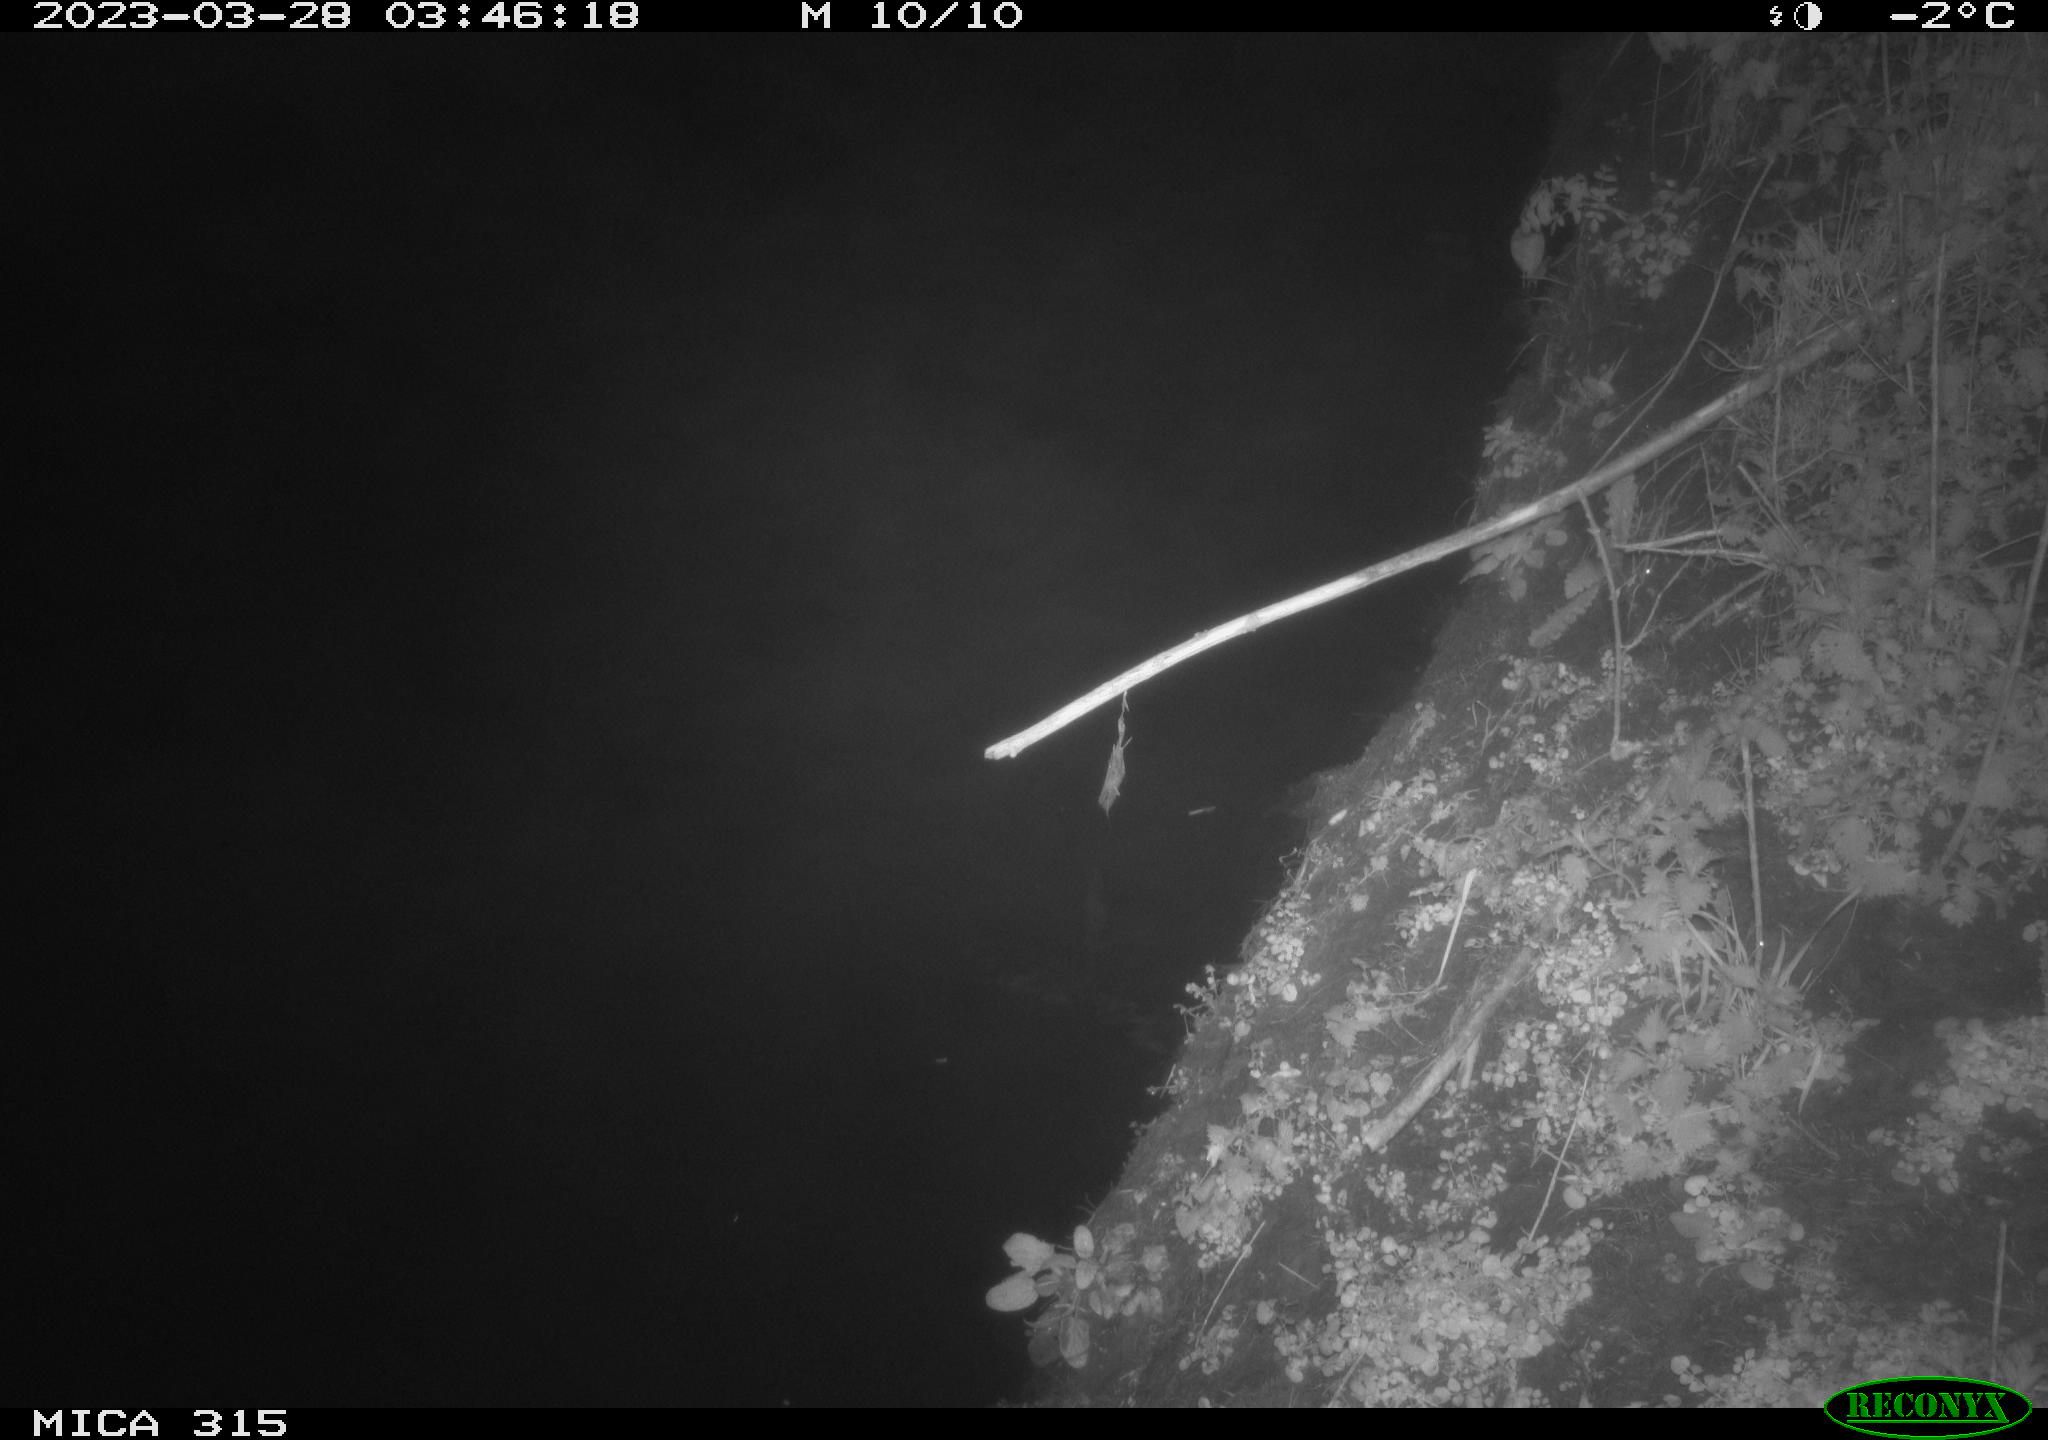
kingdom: Animalia
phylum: Chordata
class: Aves
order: Anseriformes
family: Anatidae
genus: Anas
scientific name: Anas
